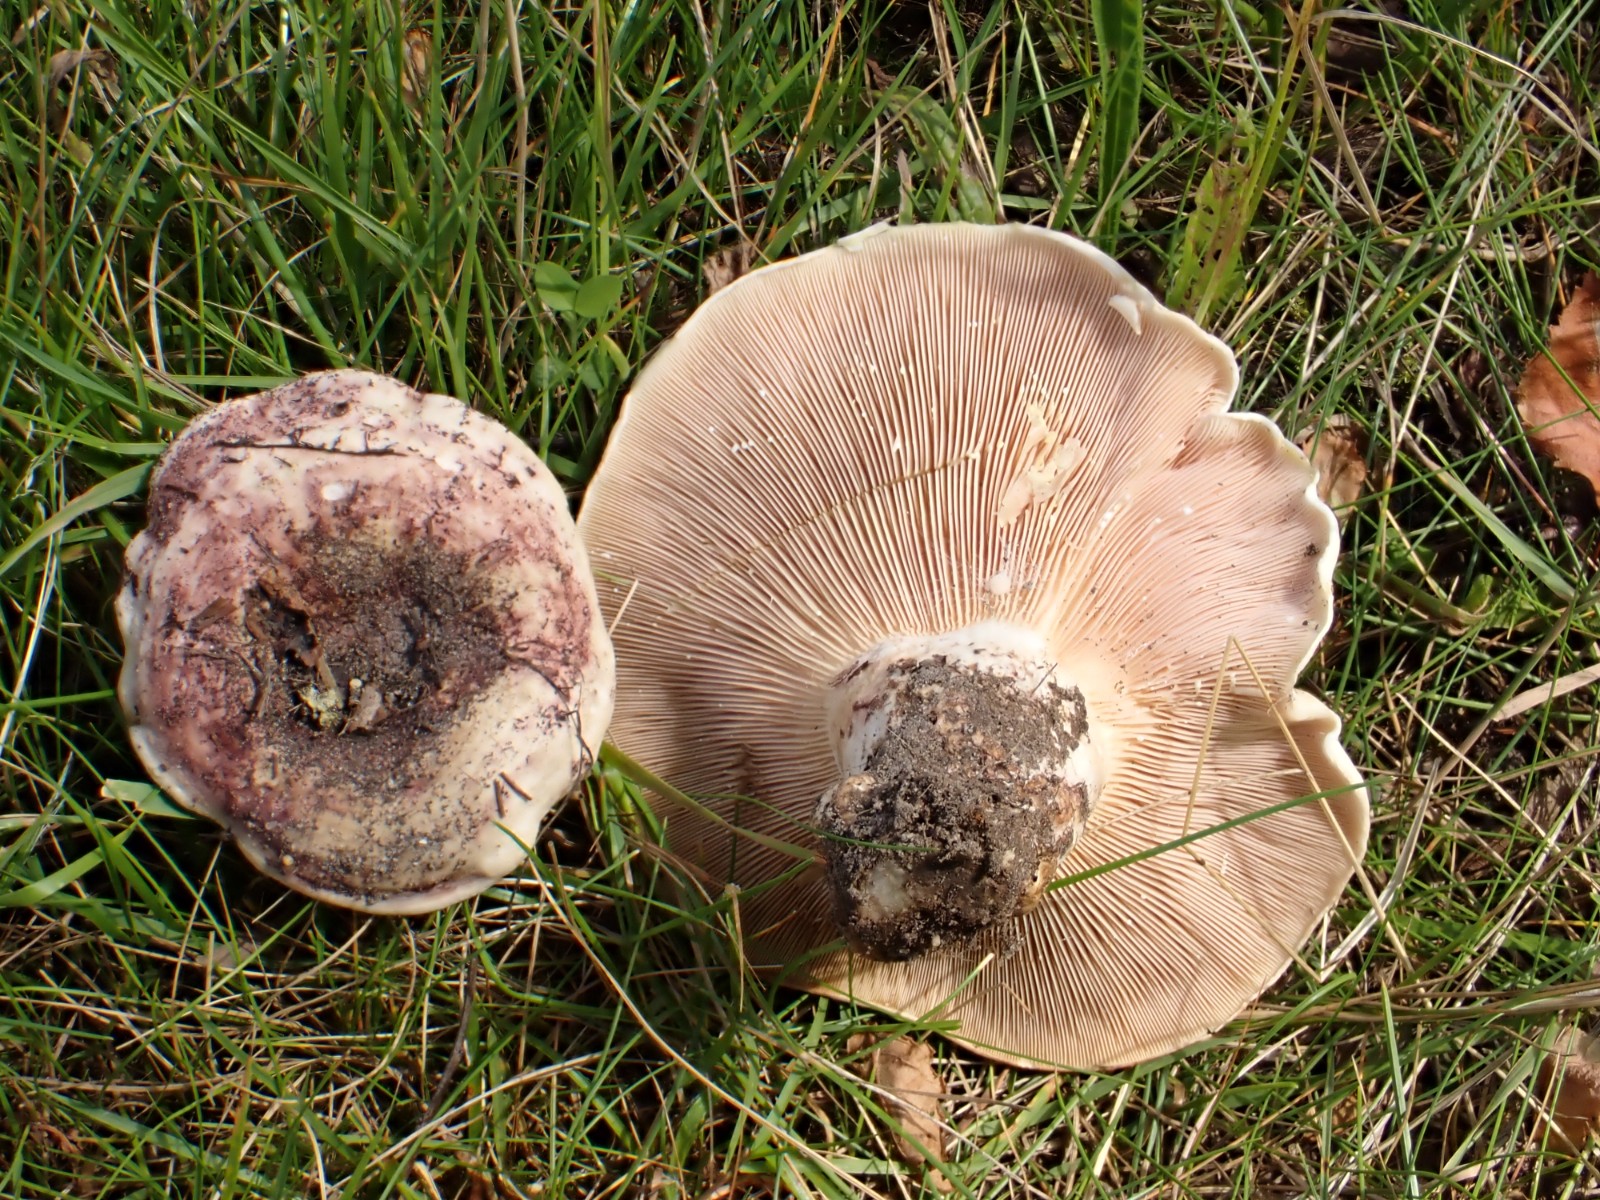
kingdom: Fungi
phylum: Basidiomycota
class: Agaricomycetes
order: Russulales
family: Russulaceae
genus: Lactarius
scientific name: Lactarius controversus
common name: rosabladet mælkehat
